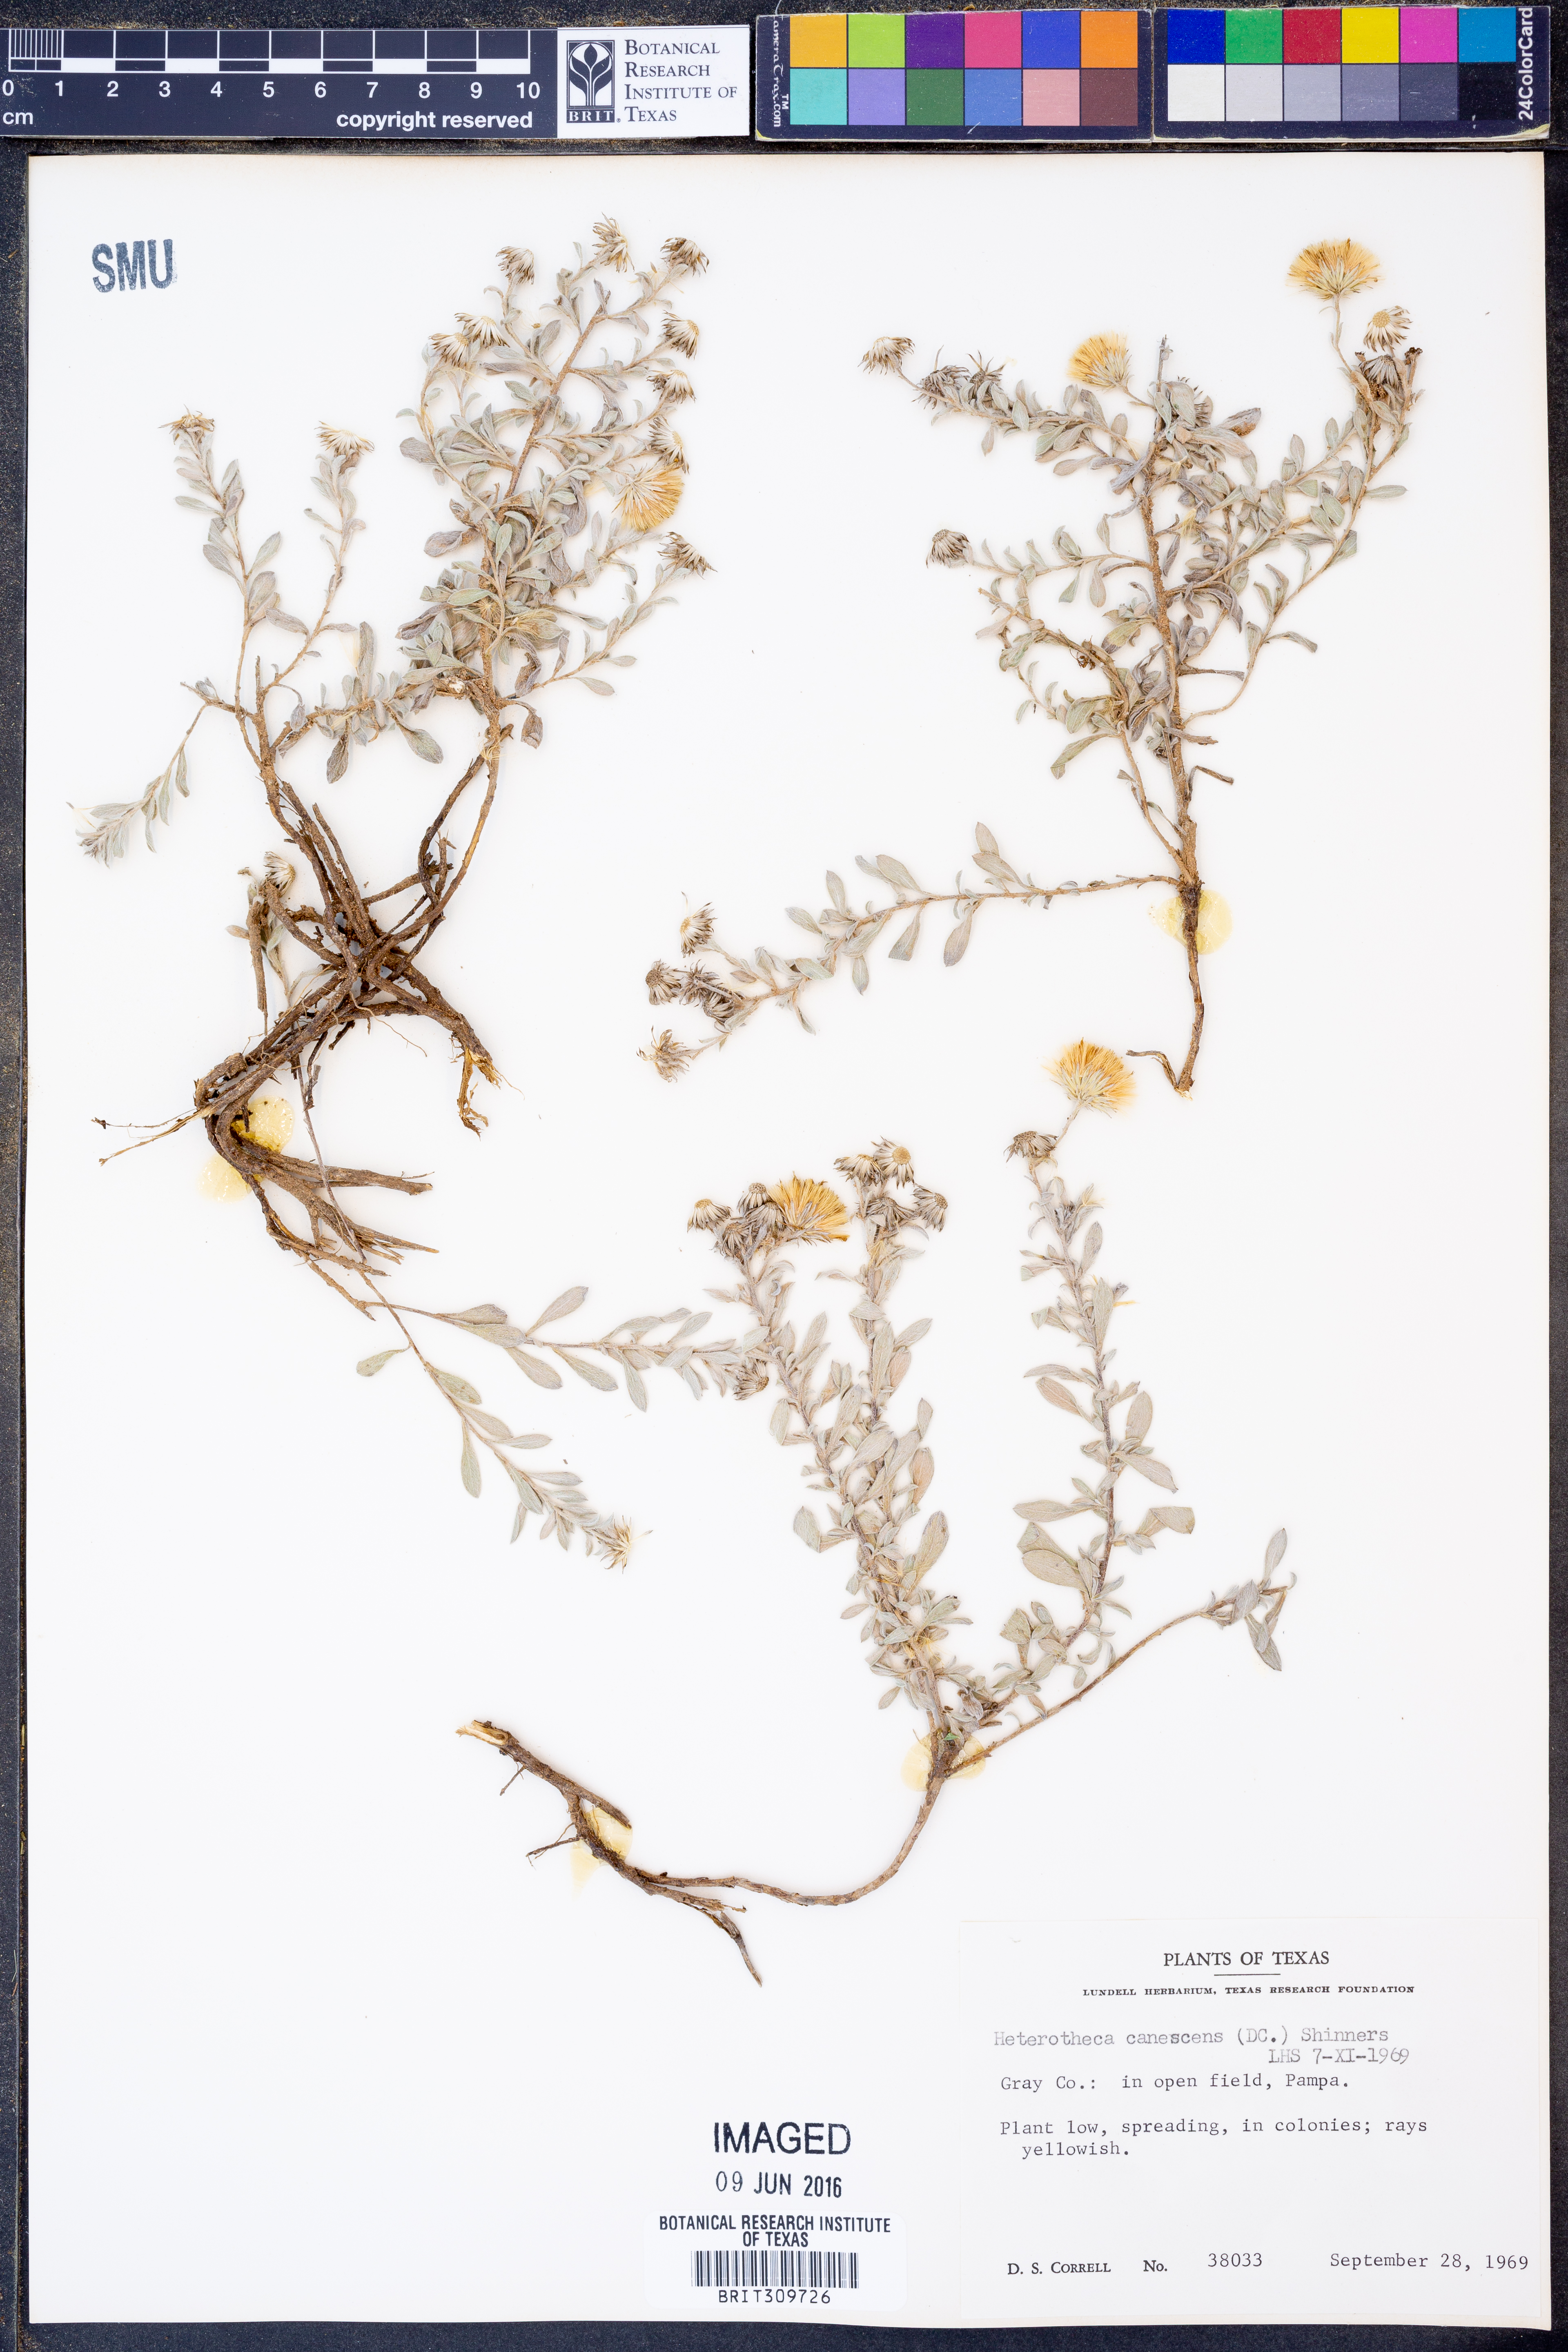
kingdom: Plantae
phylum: Tracheophyta
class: Magnoliopsida
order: Asterales
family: Asteraceae
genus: Heterotheca
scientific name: Heterotheca canescens
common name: Hoary golden-aster
